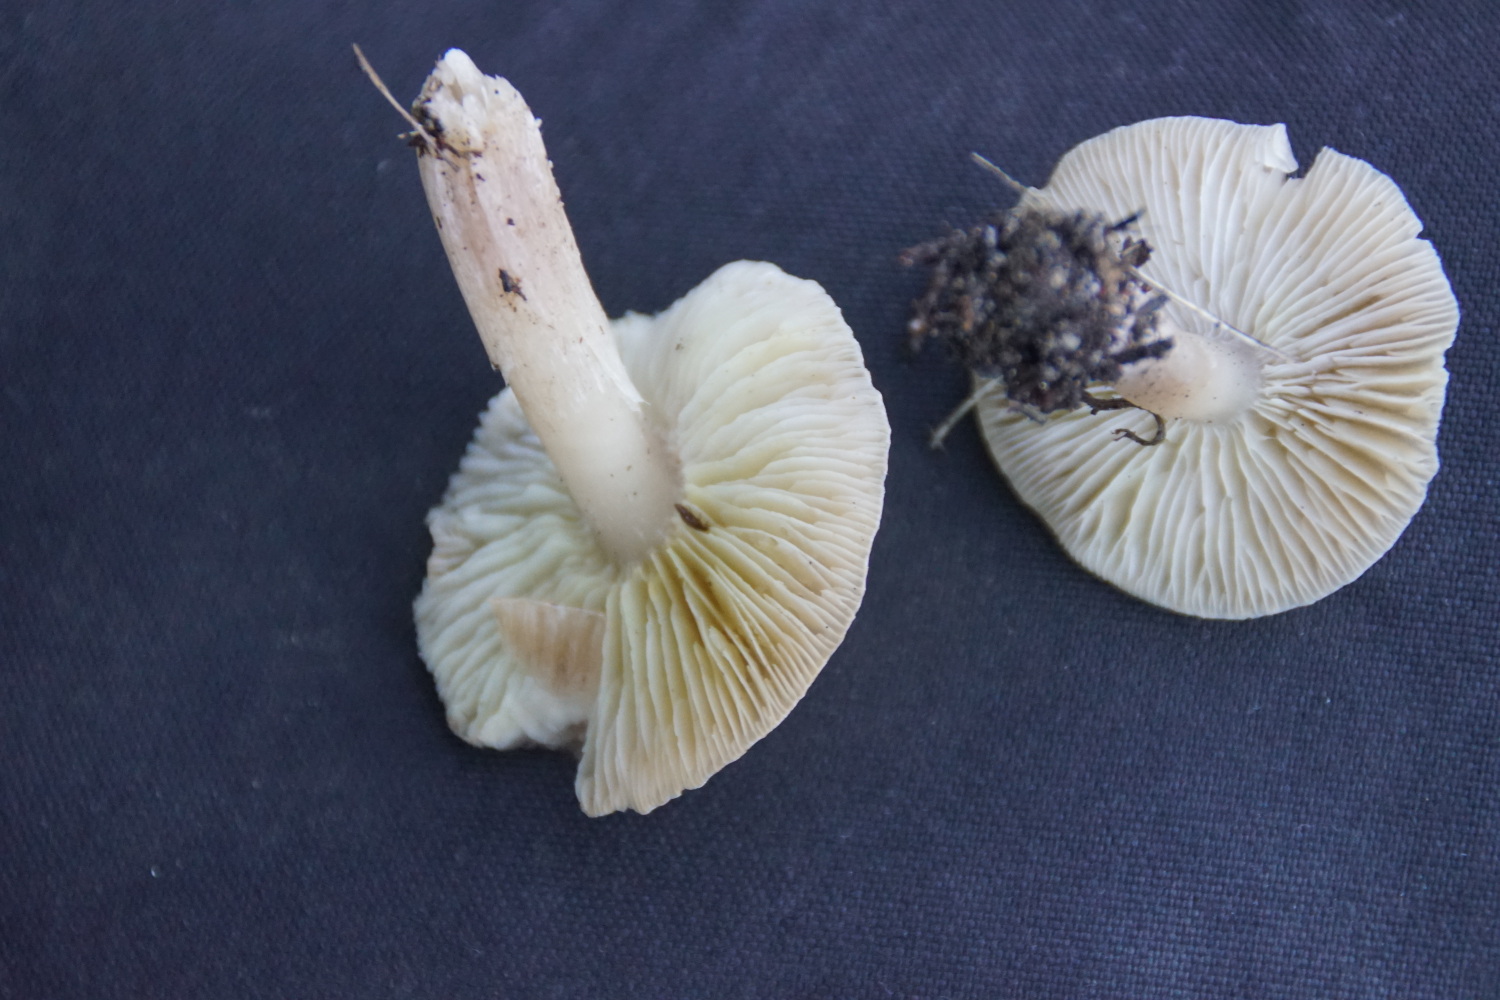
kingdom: Fungi
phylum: Basidiomycota
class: Agaricomycetes
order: Agaricales
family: Tricholomataceae
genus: Tricholoma
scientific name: Tricholoma scalpturatum
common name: gulplettet ridderhat
